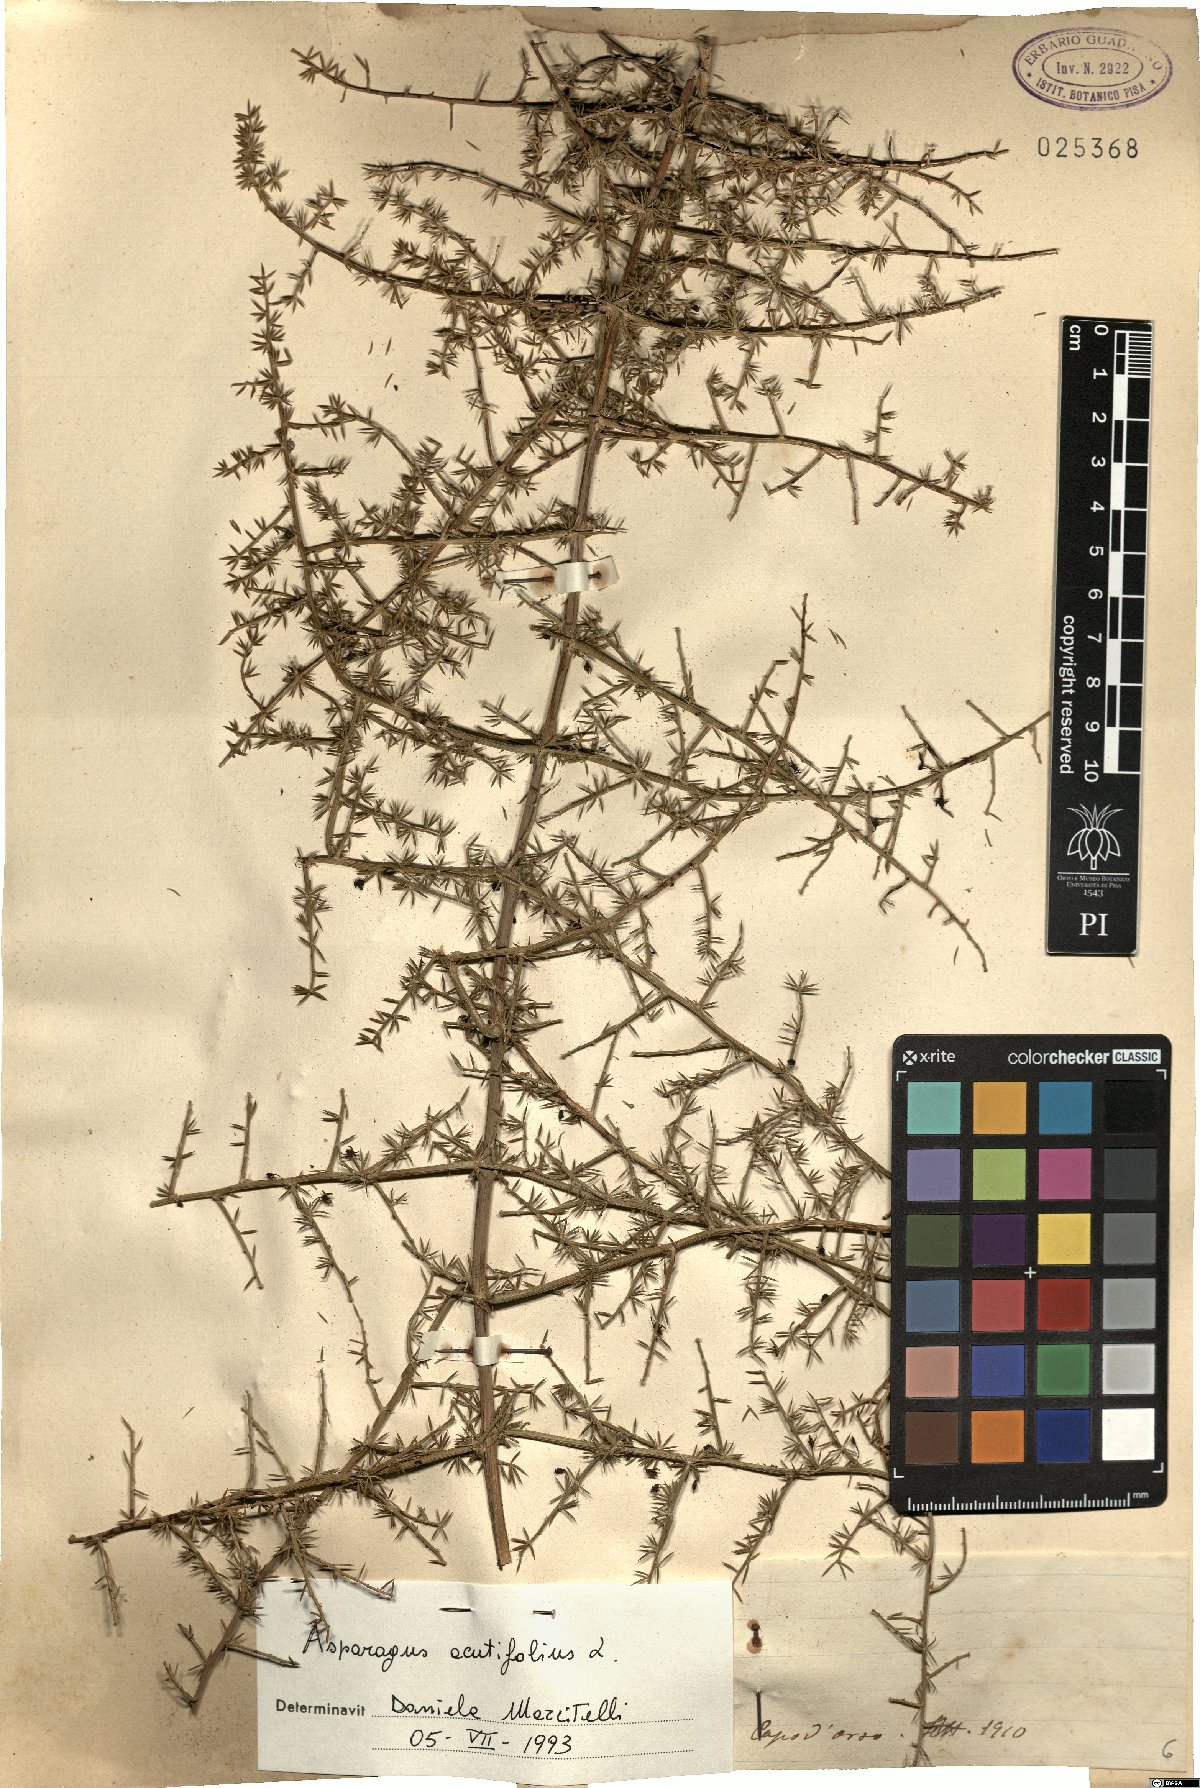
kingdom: Plantae
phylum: Tracheophyta
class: Liliopsida
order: Asparagales
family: Asparagaceae
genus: Asparagus
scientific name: Asparagus acutifolius
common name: Wild asparagus
